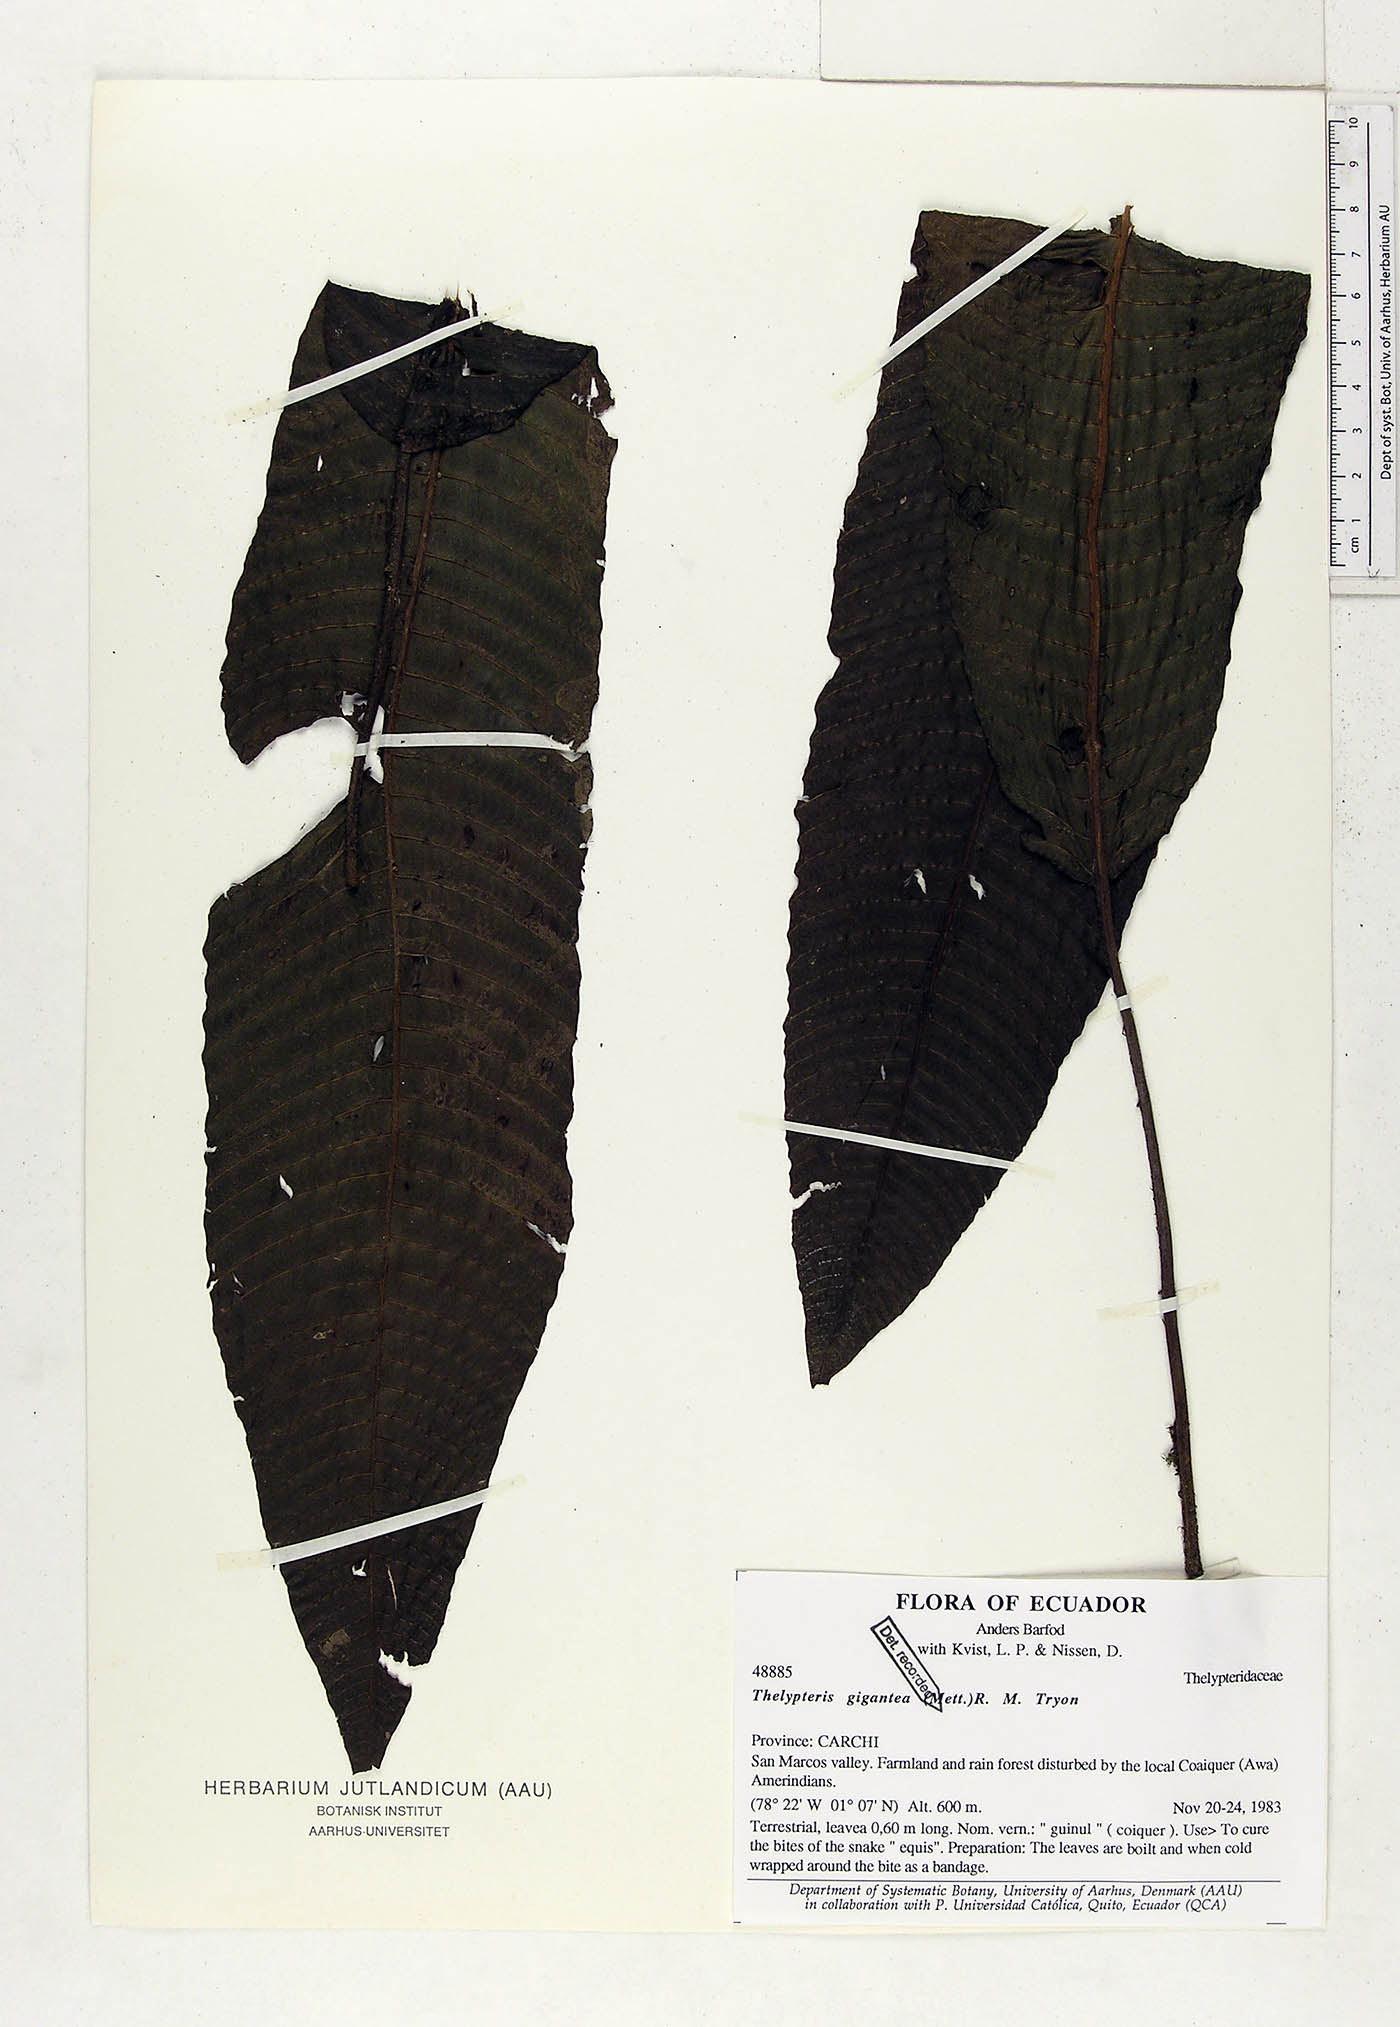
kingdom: Plantae
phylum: Tracheophyta
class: Polypodiopsida
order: Polypodiales
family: Thelypteridaceae
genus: Meniscium
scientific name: Meniscium giganteum
